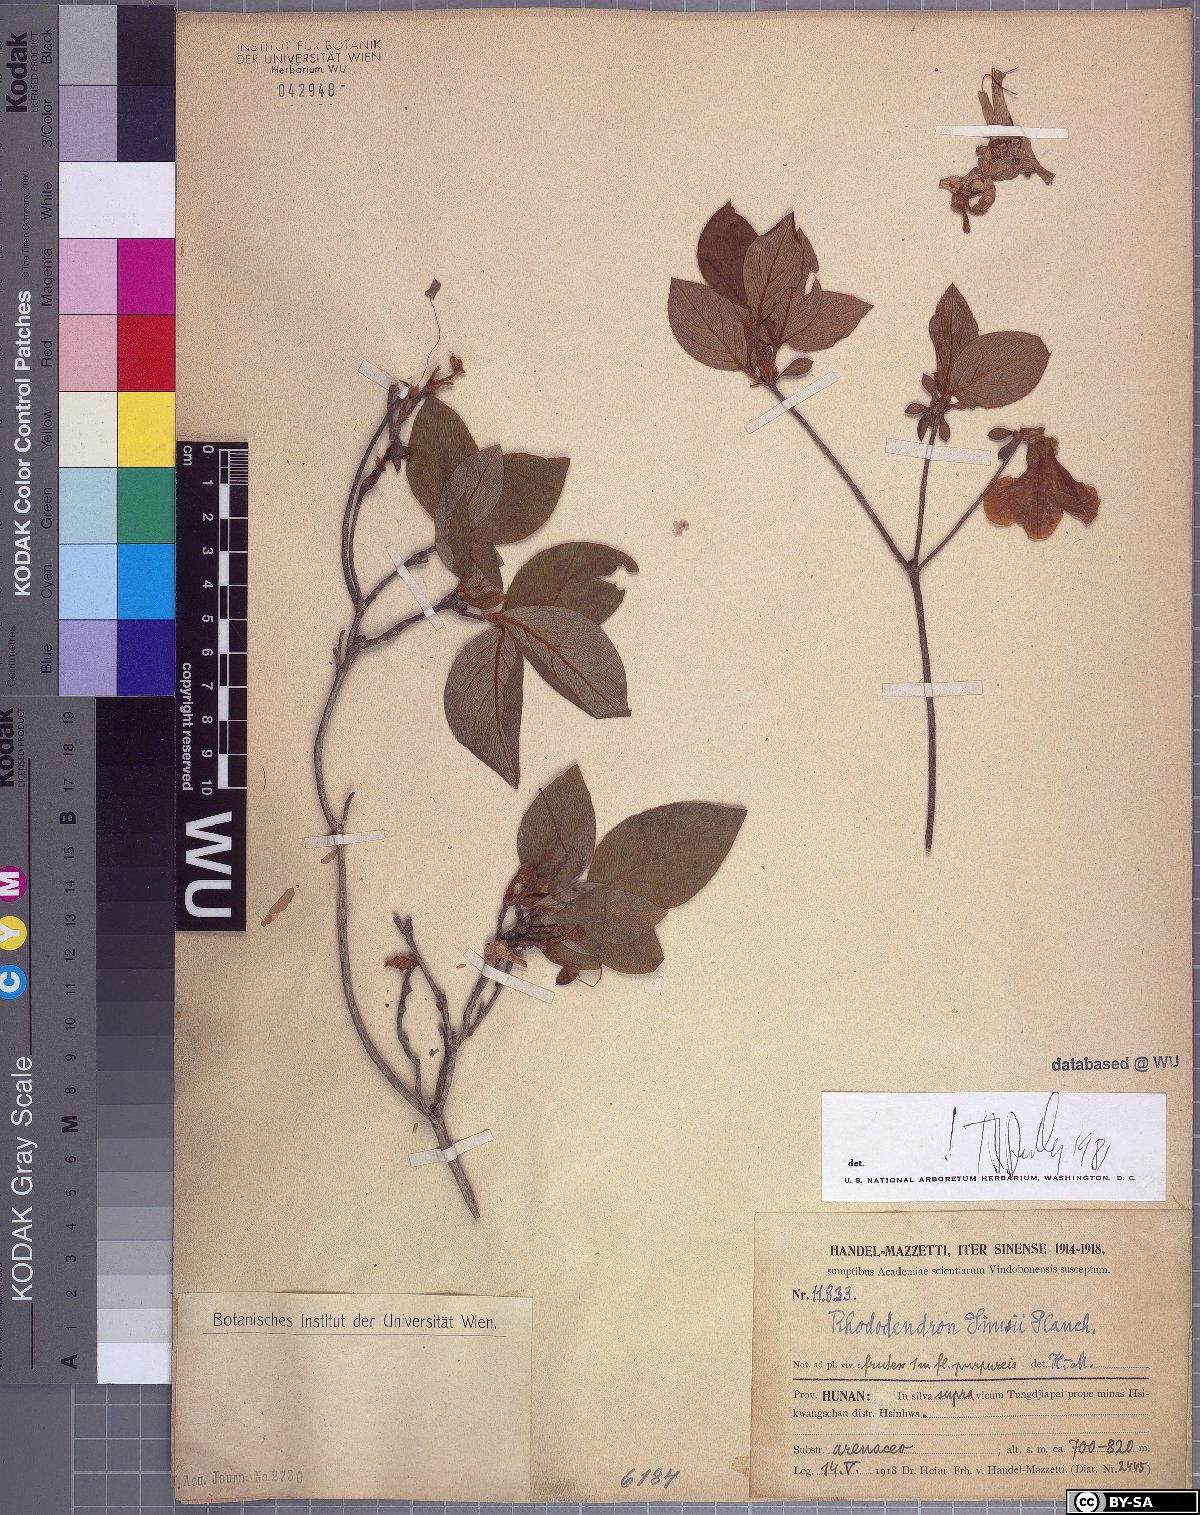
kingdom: Plantae
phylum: Tracheophyta
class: Magnoliopsida
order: Ericales
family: Ericaceae
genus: Rhododendron
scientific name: Rhododendron simsii
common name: Rhododendron
